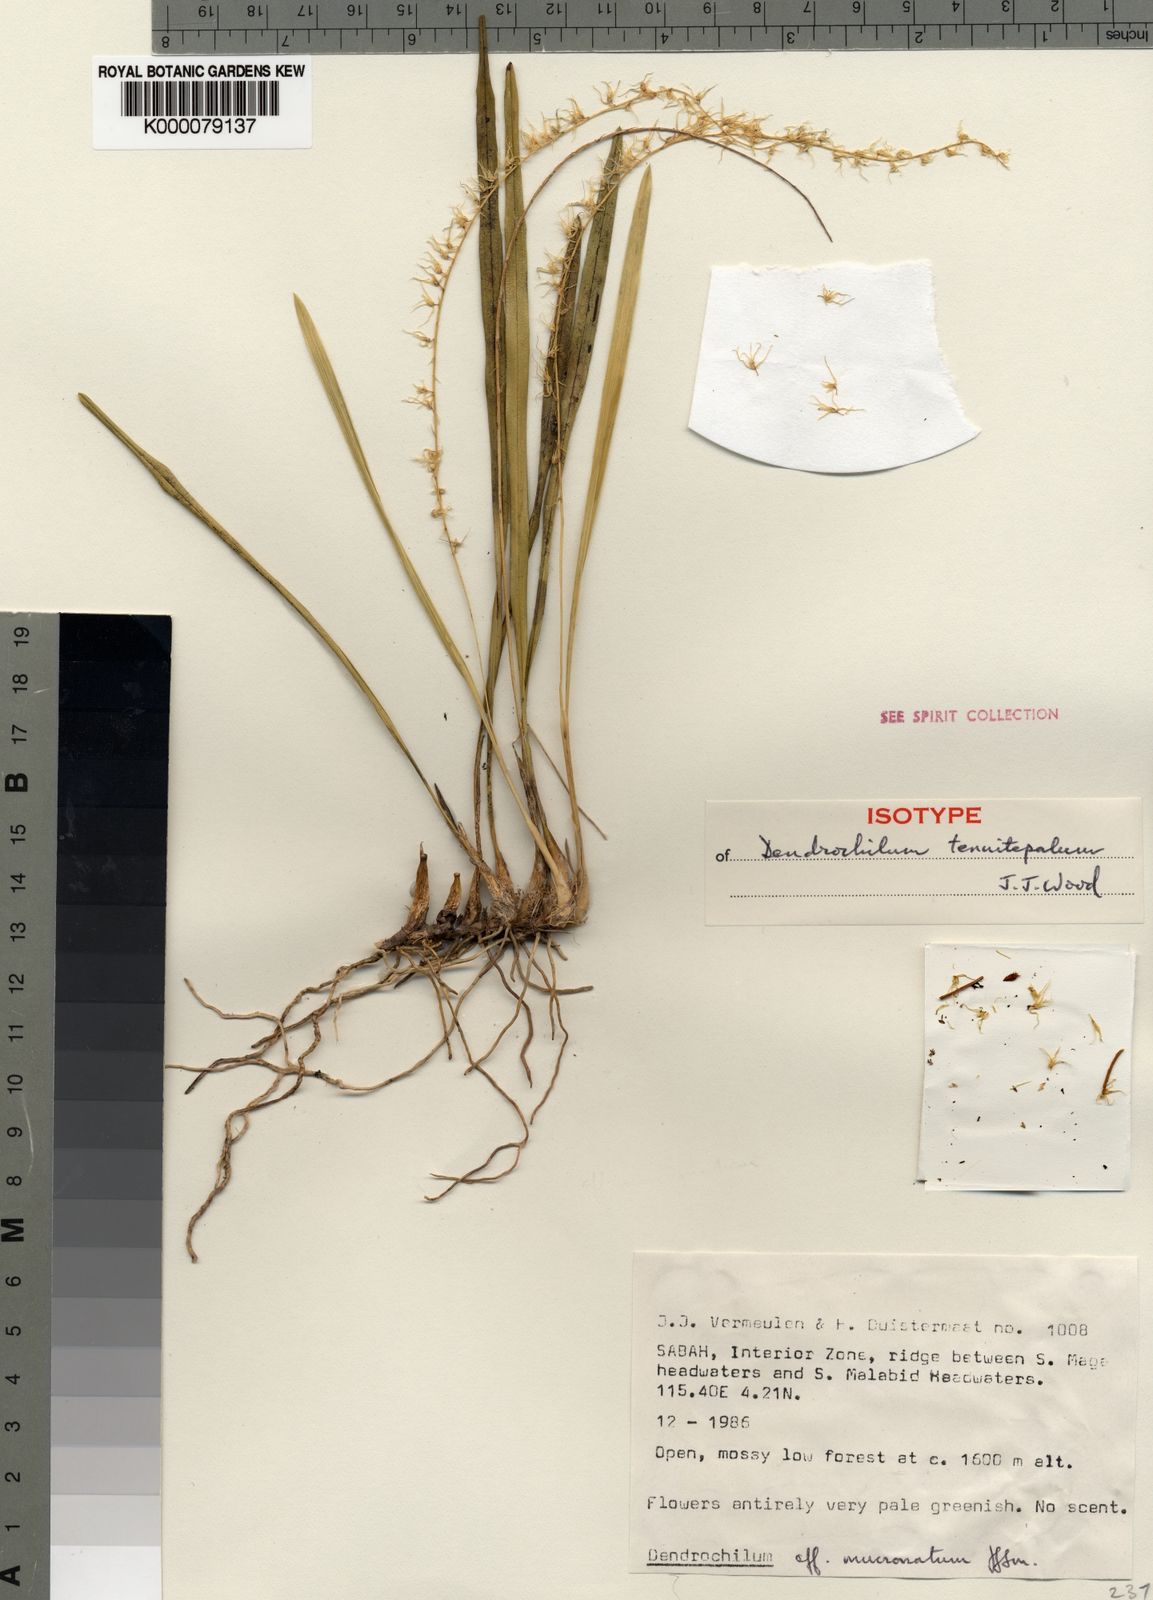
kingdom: Plantae
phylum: Tracheophyta
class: Liliopsida
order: Asparagales
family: Orchidaceae
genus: Coelogyne
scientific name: Coelogyne tenuitepala
